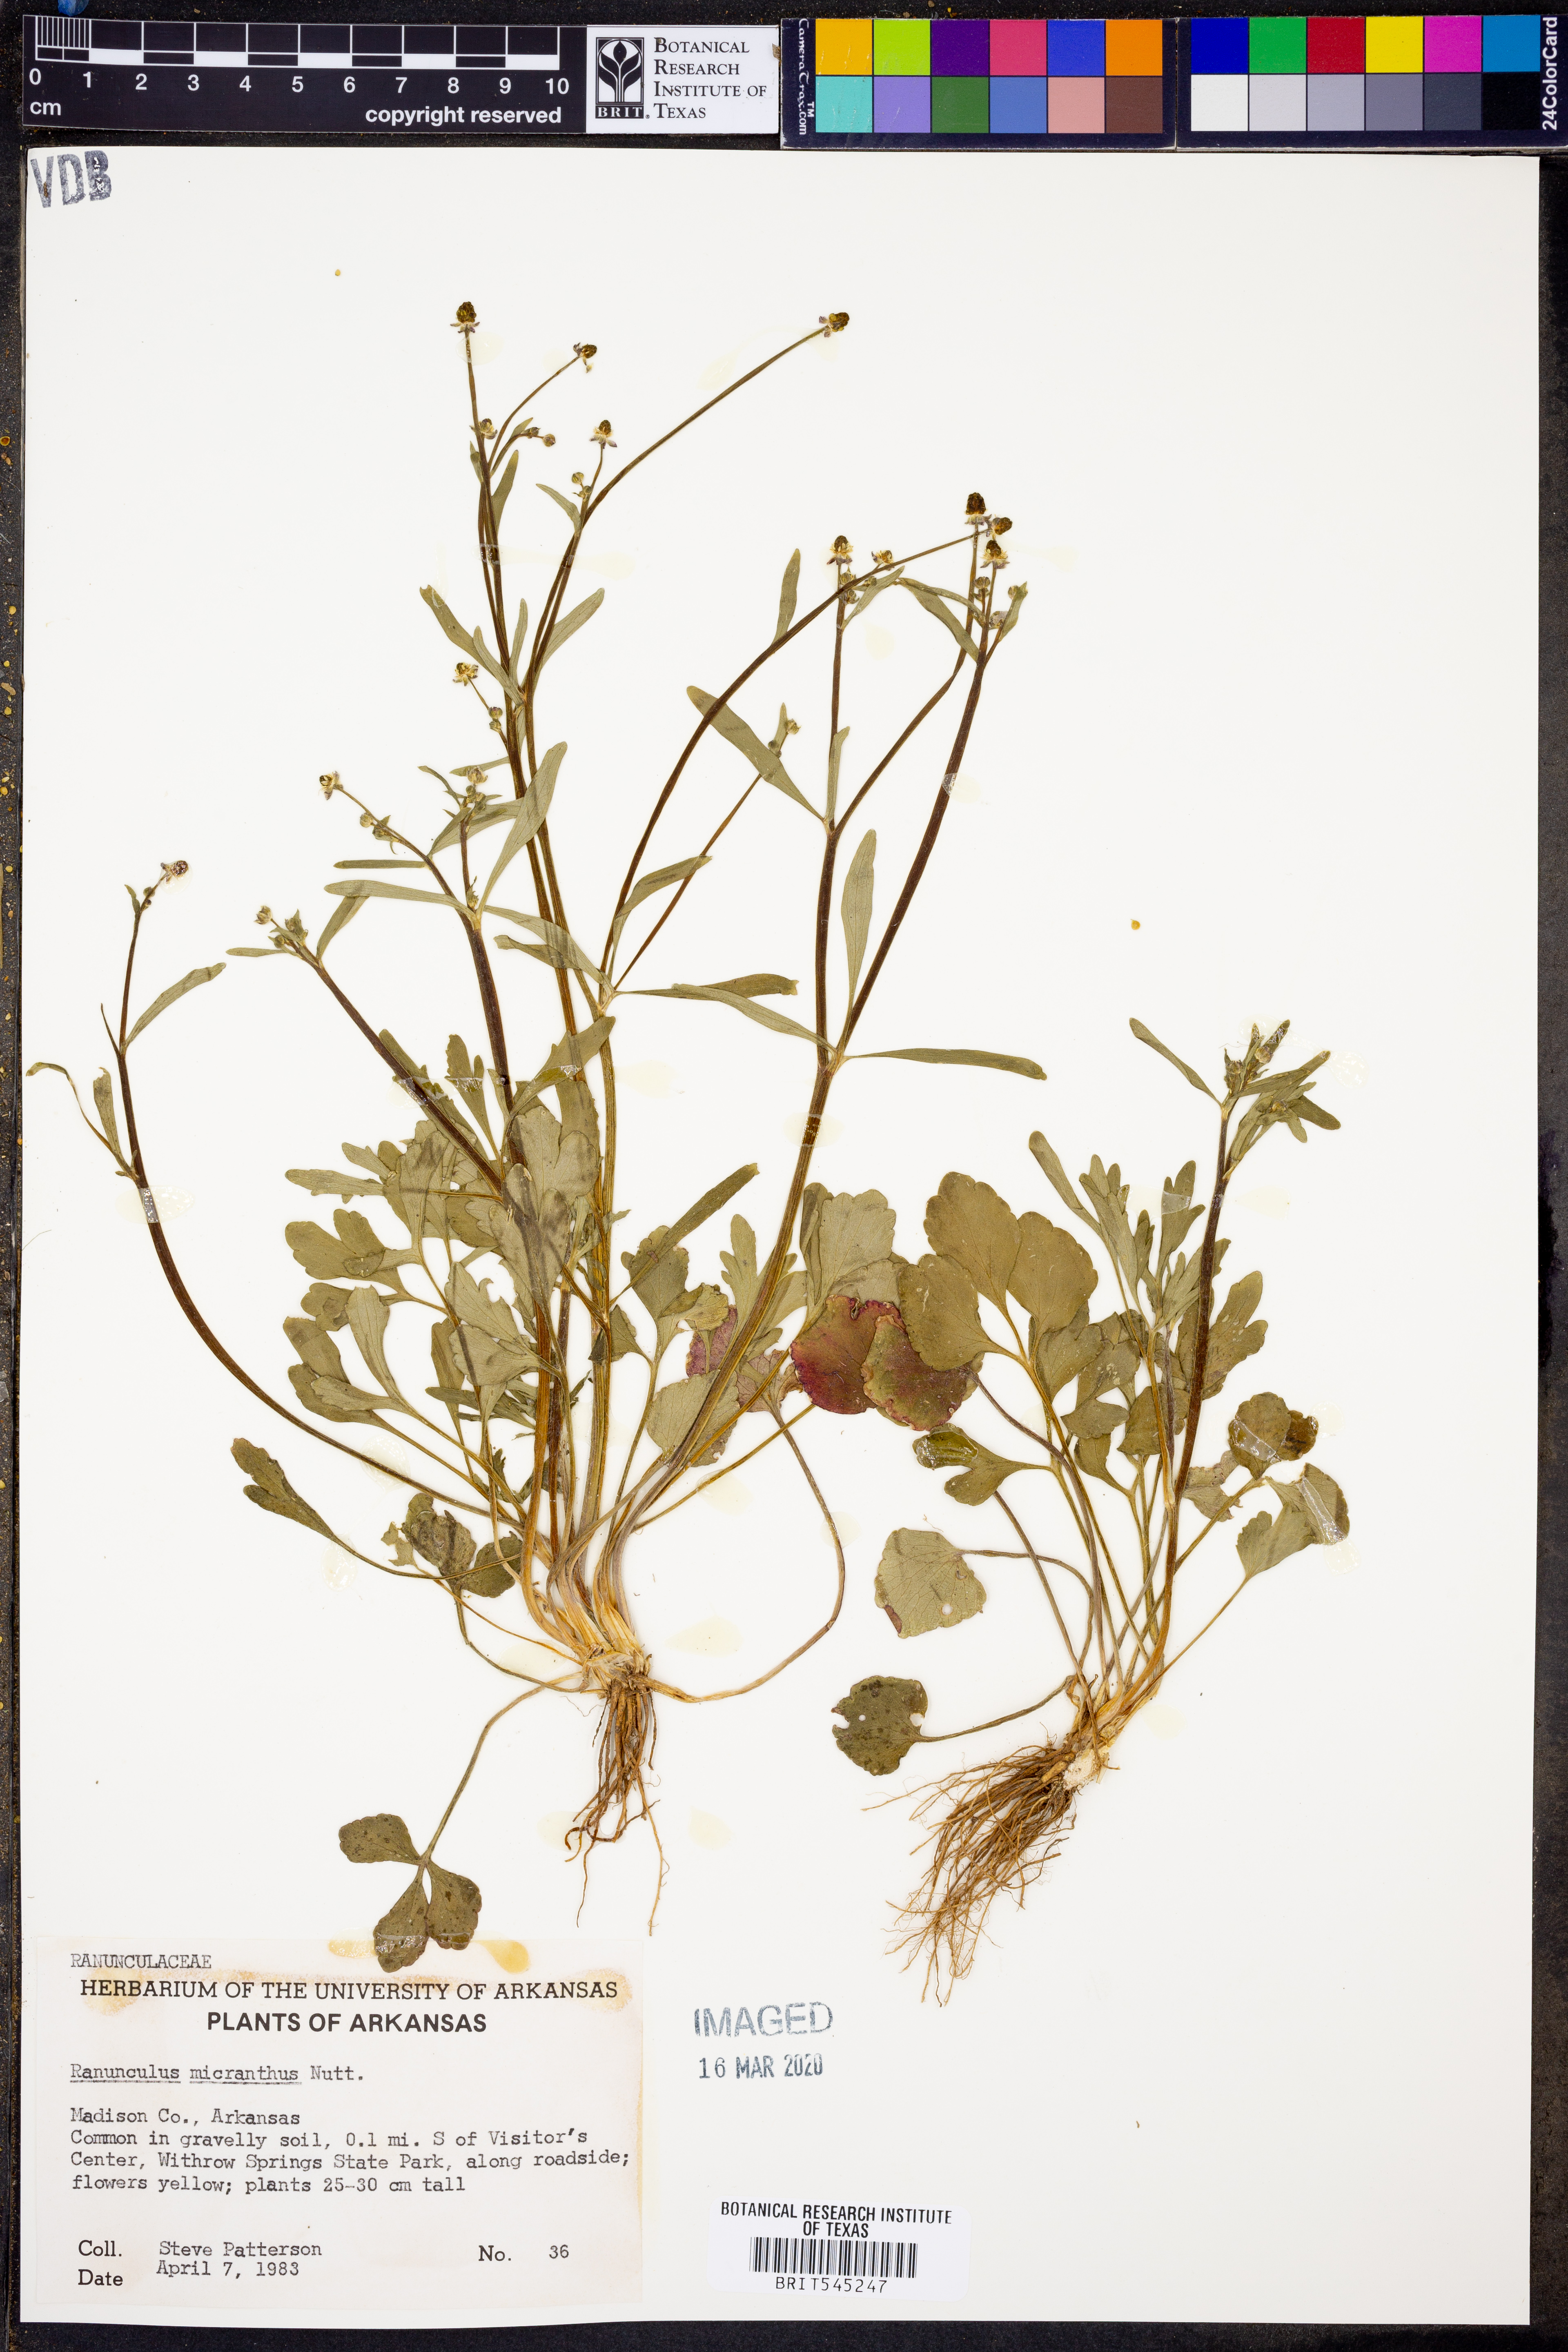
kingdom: Plantae
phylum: Tracheophyta
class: Magnoliopsida
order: Ranunculales
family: Ranunculaceae
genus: Ranunculus
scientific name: Ranunculus micranthus
